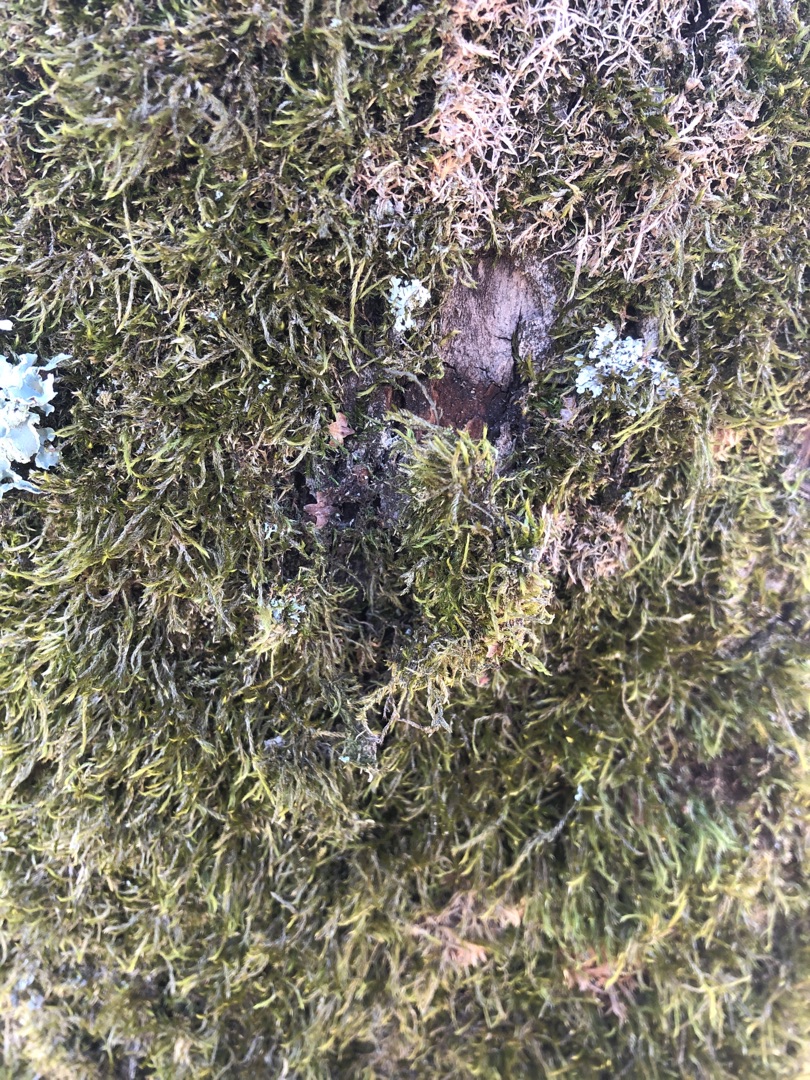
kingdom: Plantae
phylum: Bryophyta
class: Bryopsida
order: Hypnales
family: Hypnaceae
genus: Hypnum
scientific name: Hypnum
